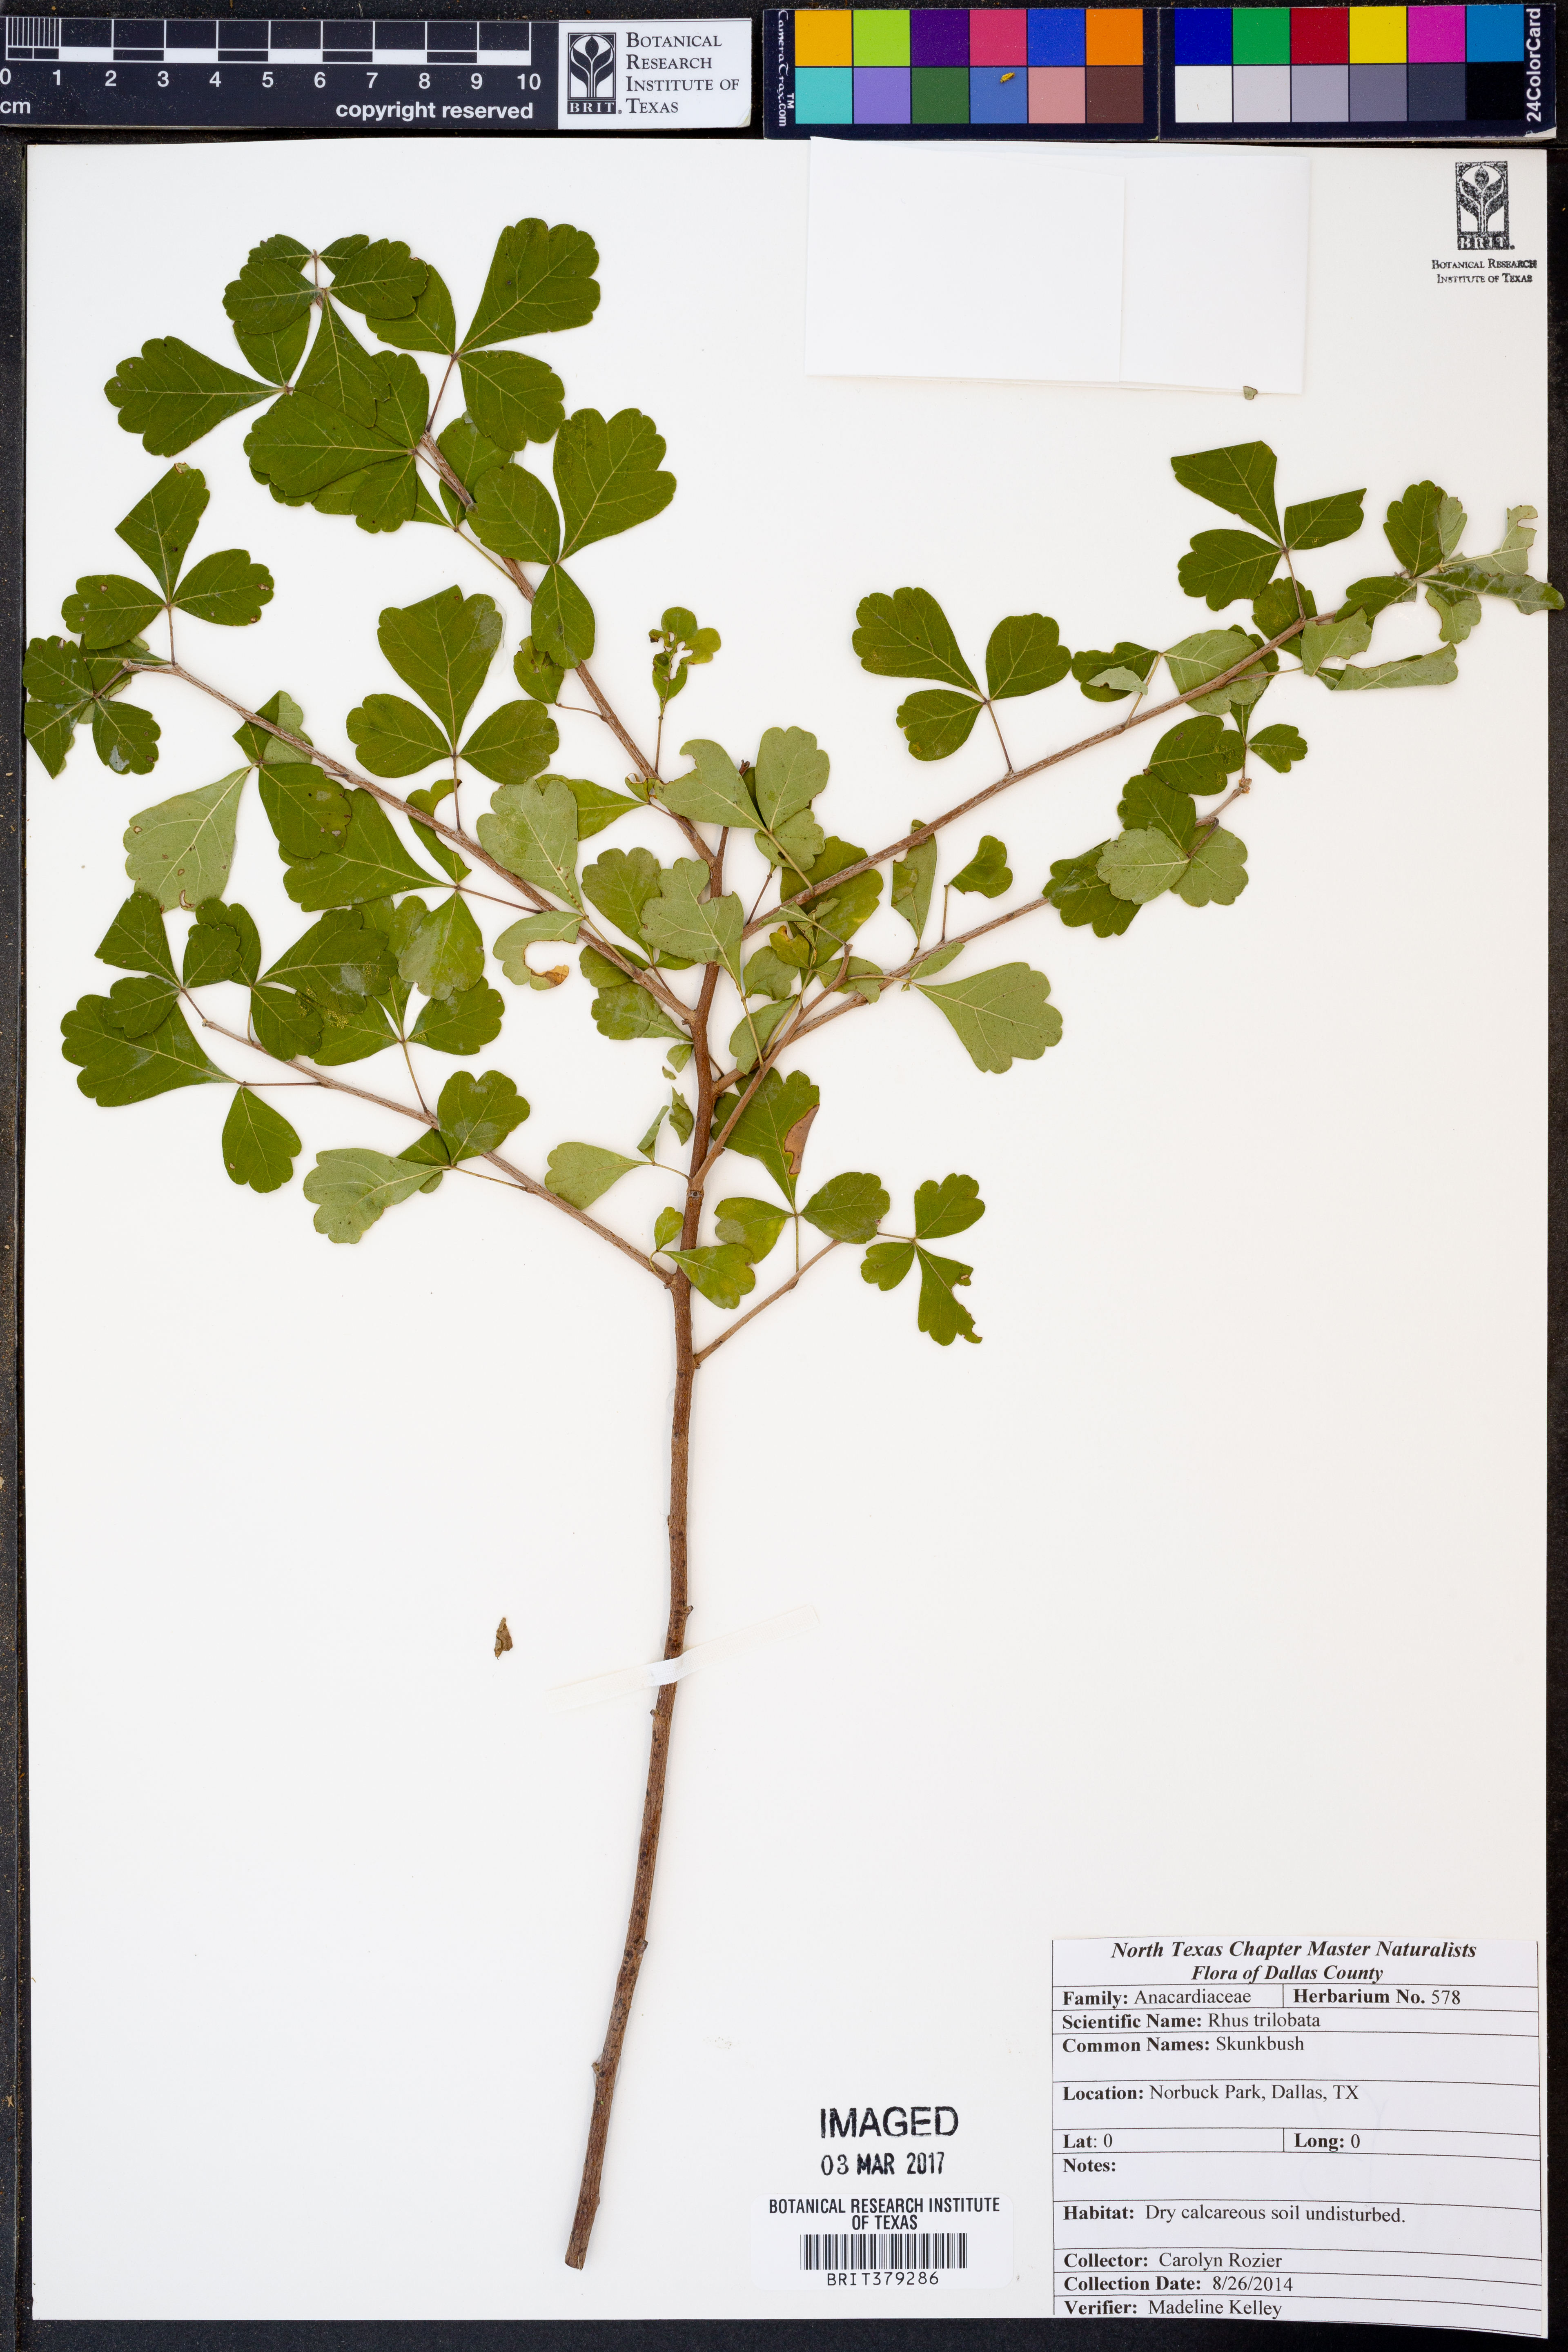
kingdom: Plantae
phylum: Tracheophyta
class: Magnoliopsida
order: Sapindales
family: Anacardiaceae
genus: Rhus
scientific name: Rhus trilobata
